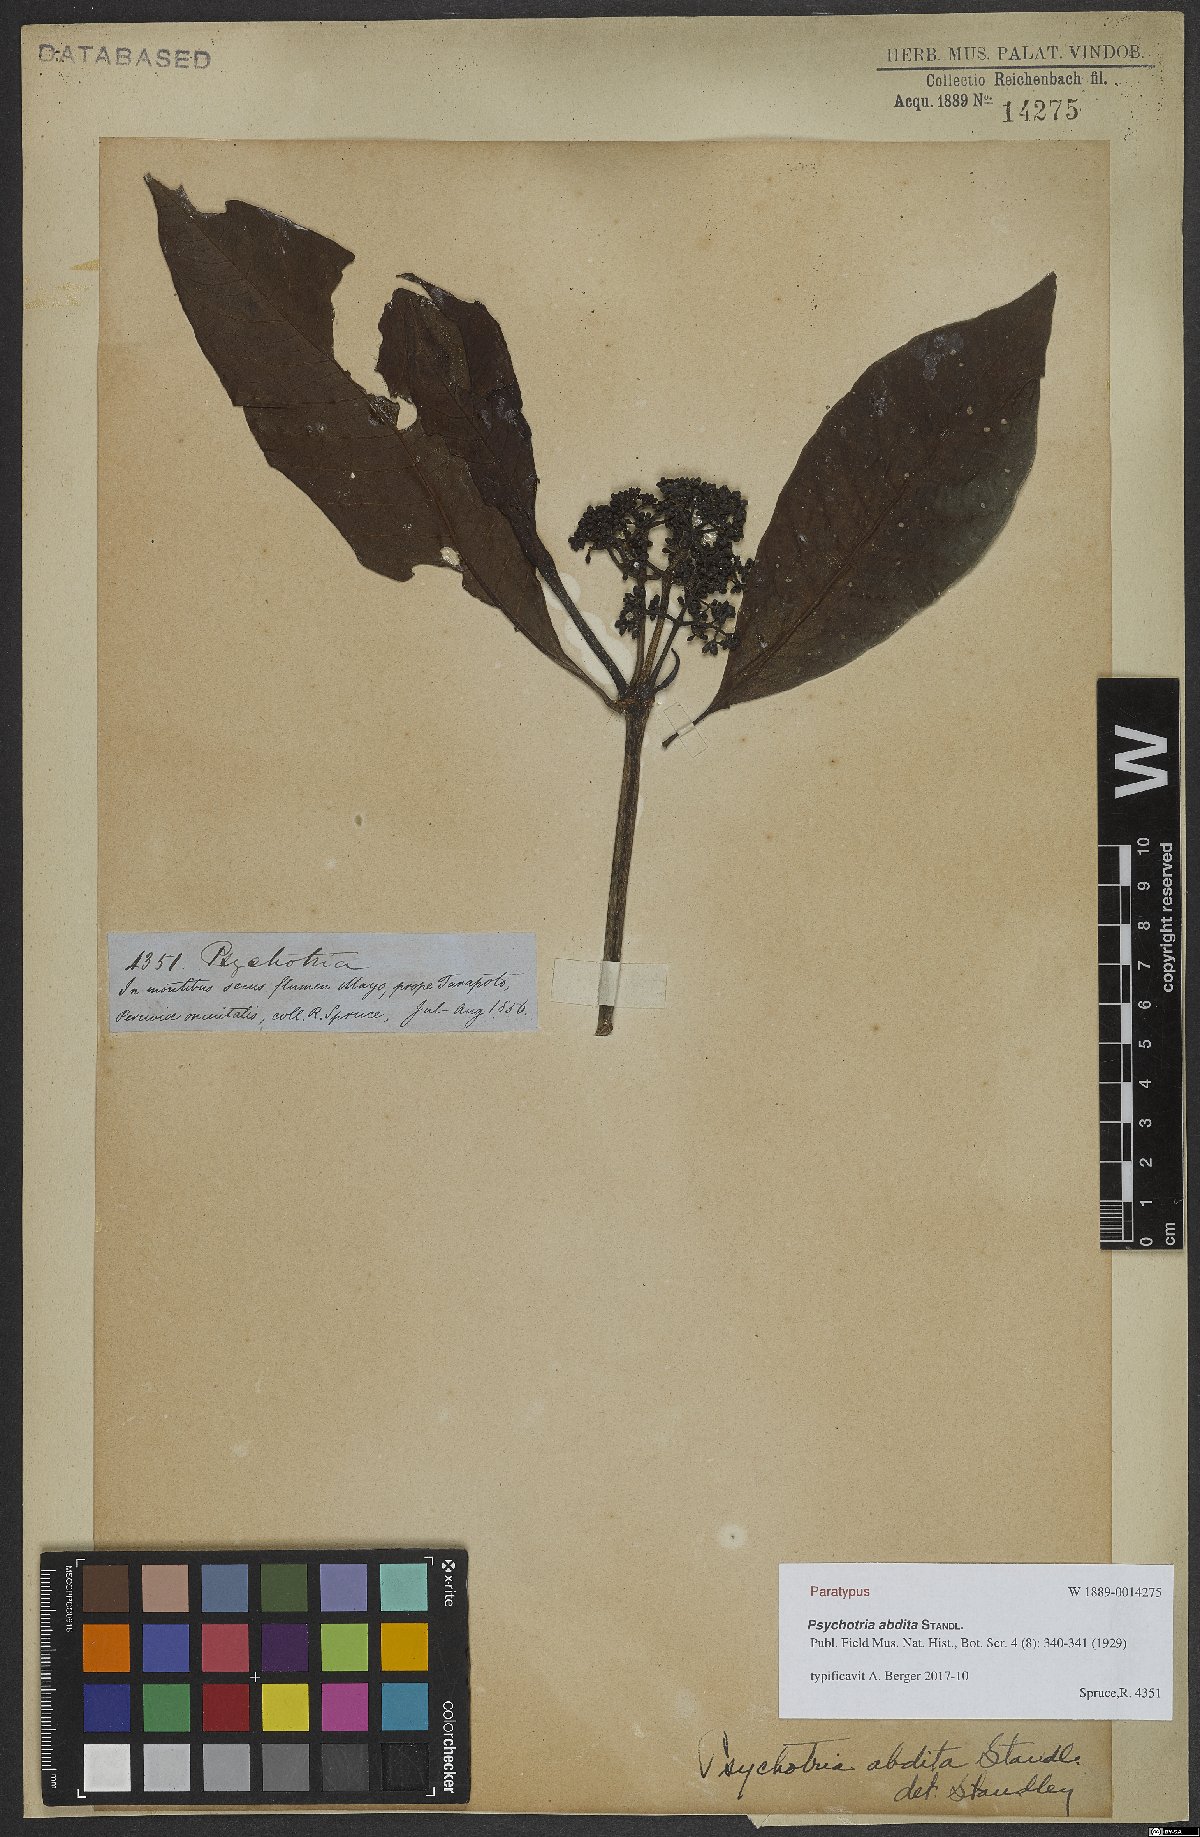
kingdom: Plantae
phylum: Tracheophyta
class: Magnoliopsida
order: Gentianales
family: Rubiaceae
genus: Psychotria
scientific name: Psychotria abdita
